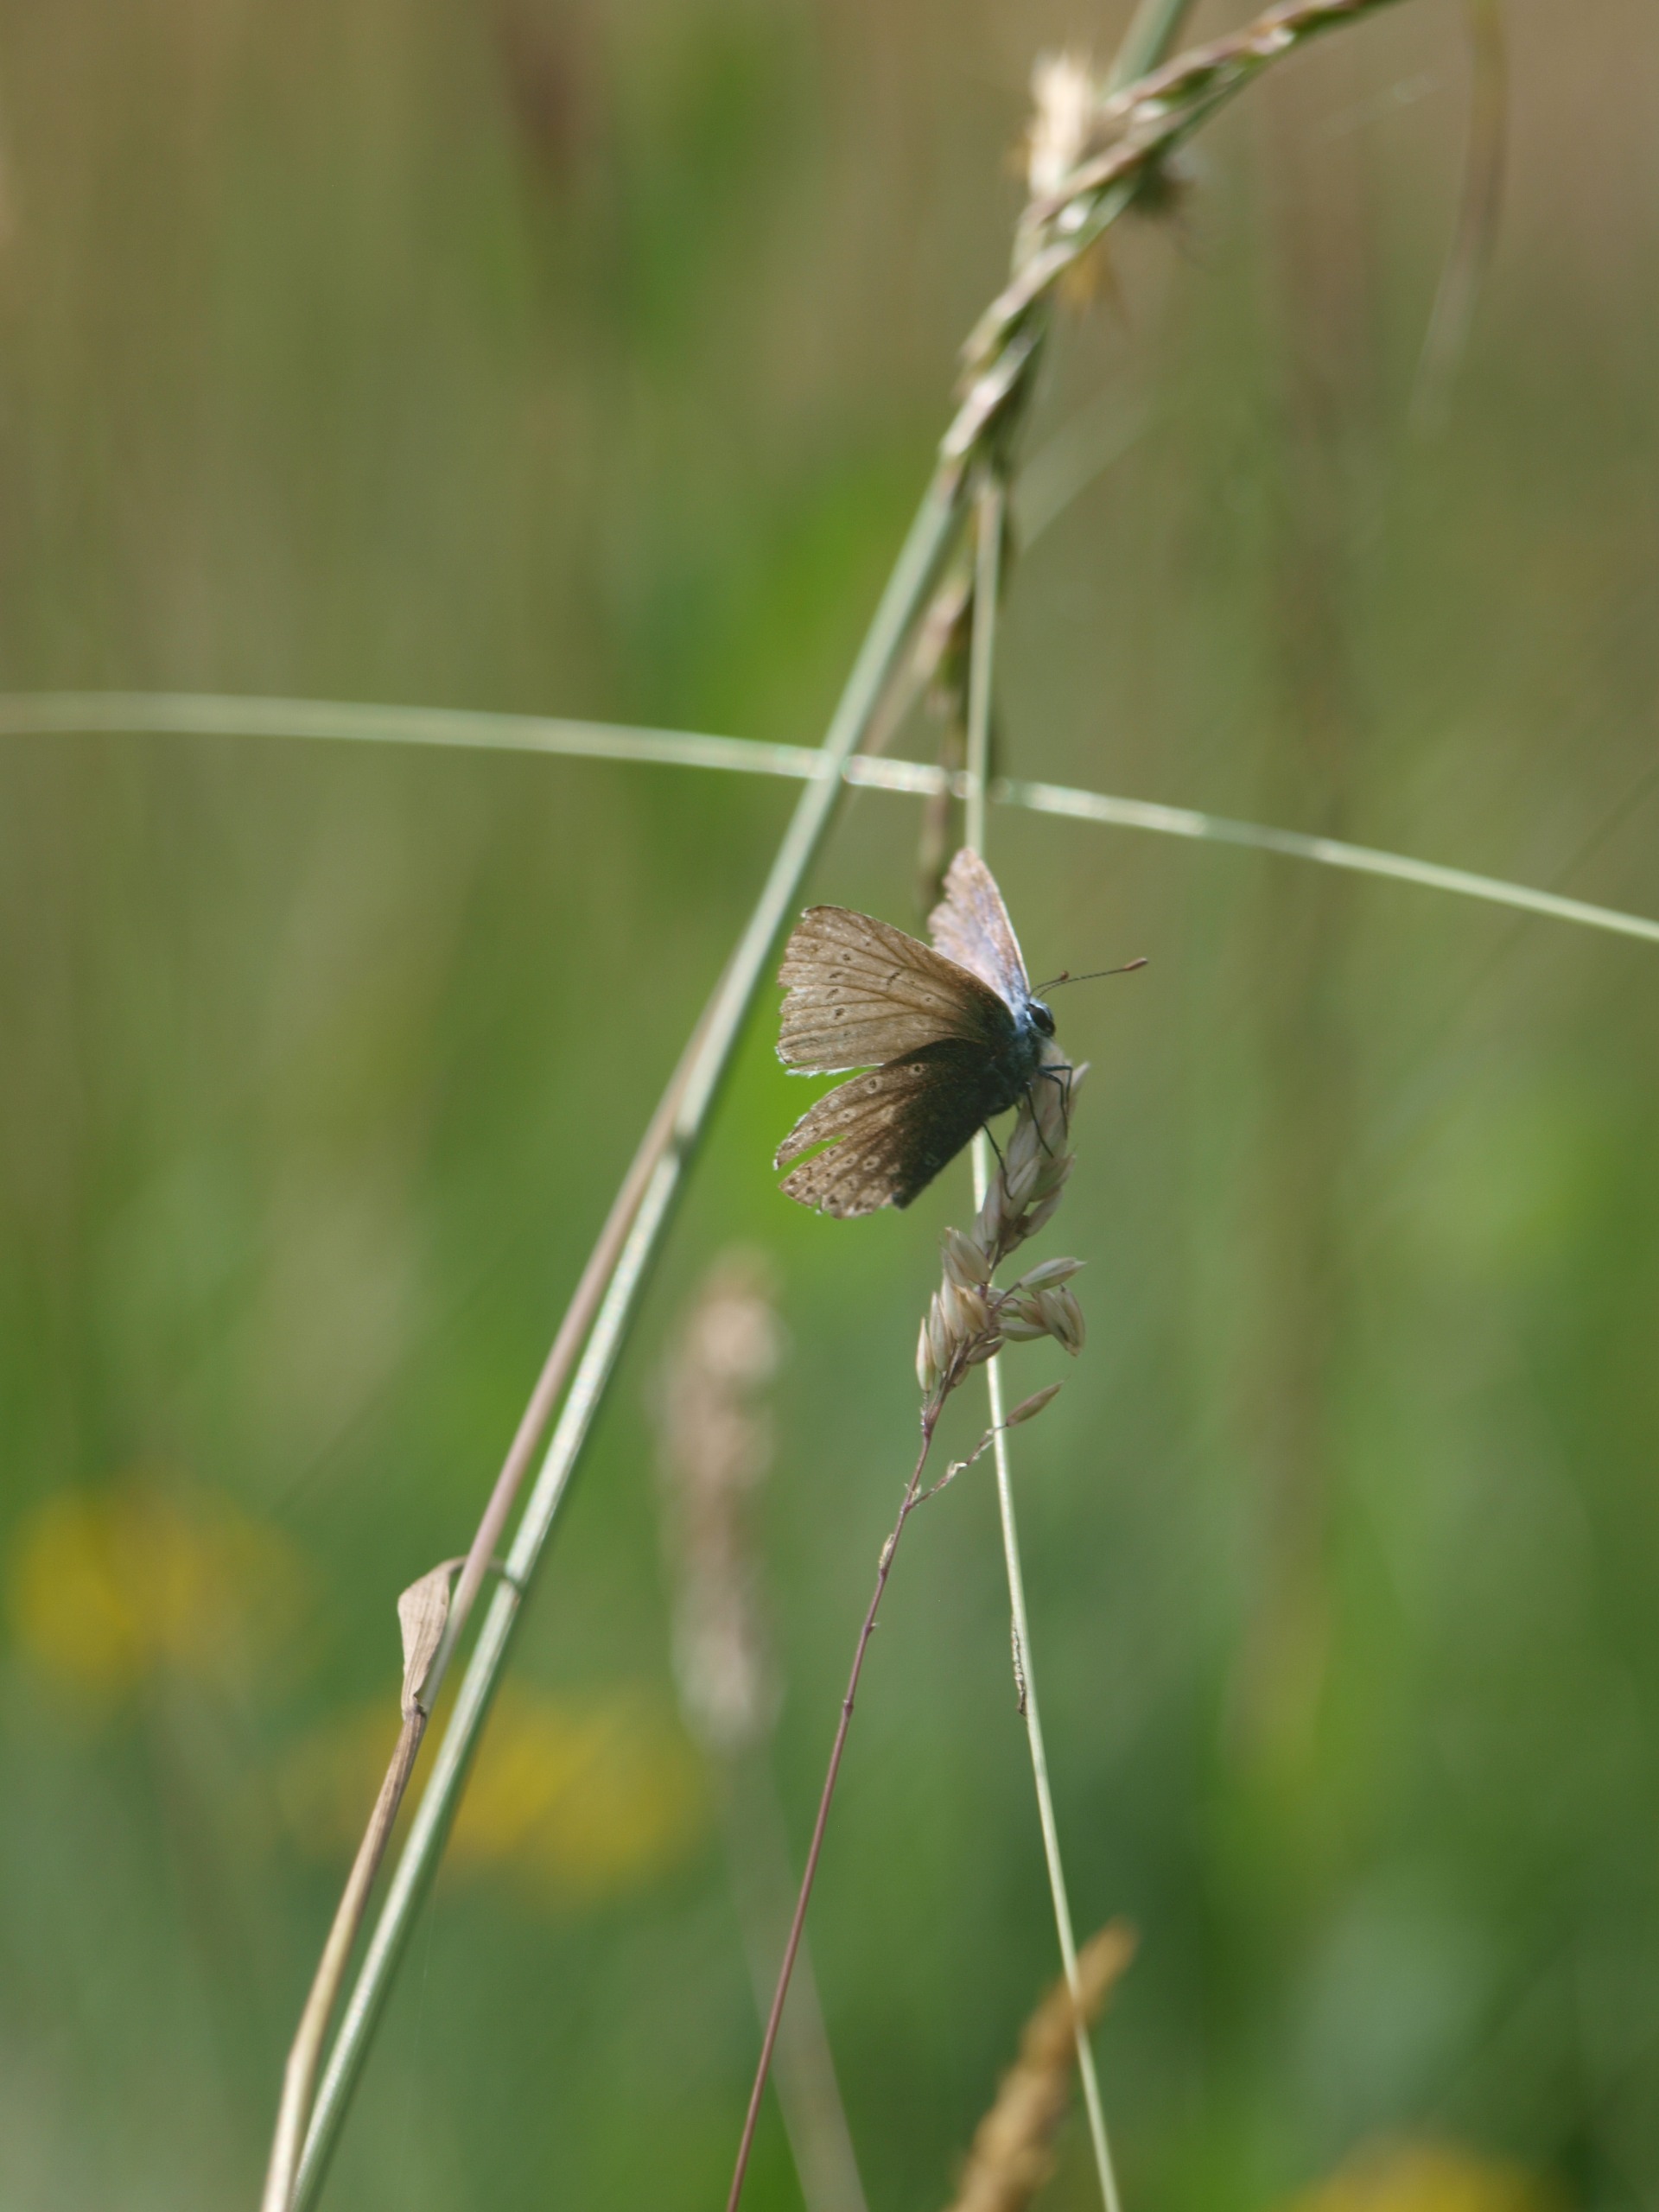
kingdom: Animalia
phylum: Arthropoda
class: Insecta
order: Lepidoptera
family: Lycaenidae
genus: Polyommatus
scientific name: Polyommatus icarus
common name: Almindelig blåfugl
